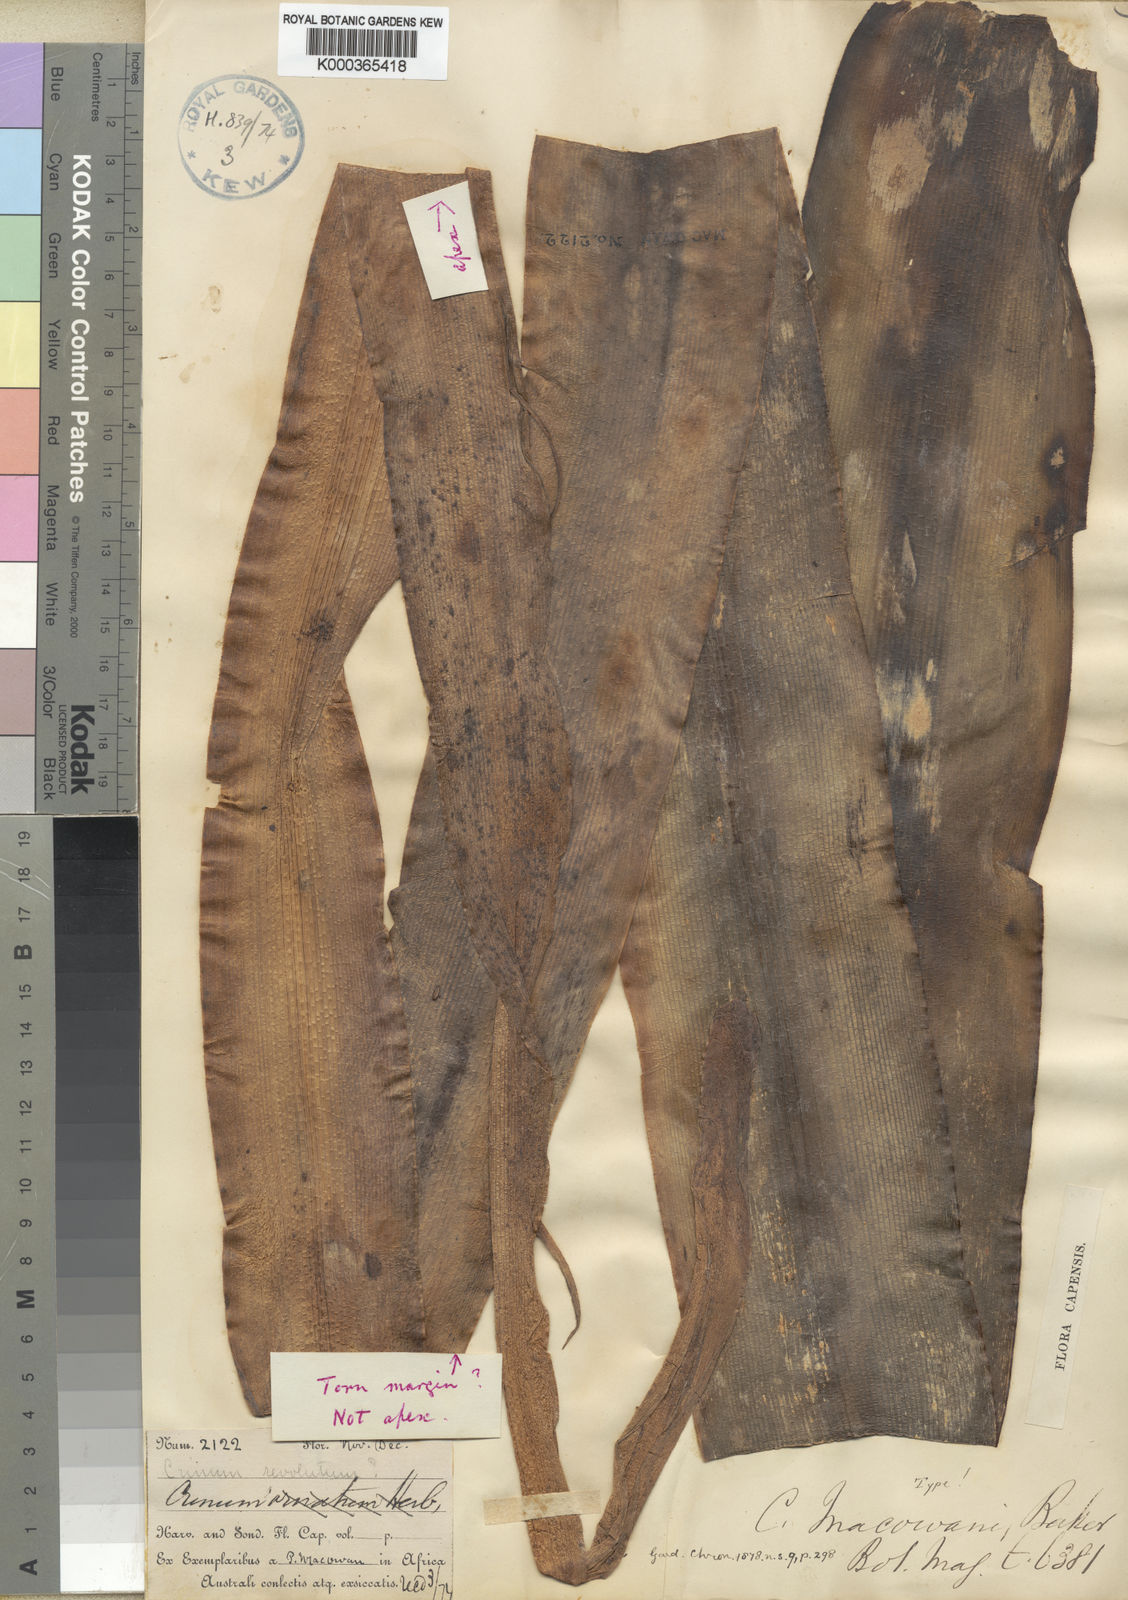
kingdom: Plantae
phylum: Tracheophyta
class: Liliopsida
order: Asparagales
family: Amaryllidaceae
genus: Crinum
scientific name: Crinum macowanii
